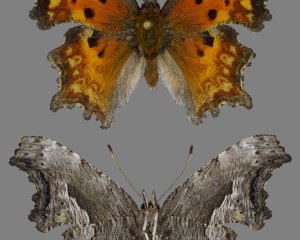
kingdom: Animalia
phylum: Arthropoda
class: Insecta
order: Lepidoptera
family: Nymphalidae
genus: Polygonia
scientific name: Polygonia gracilis
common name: Hoary Comma
